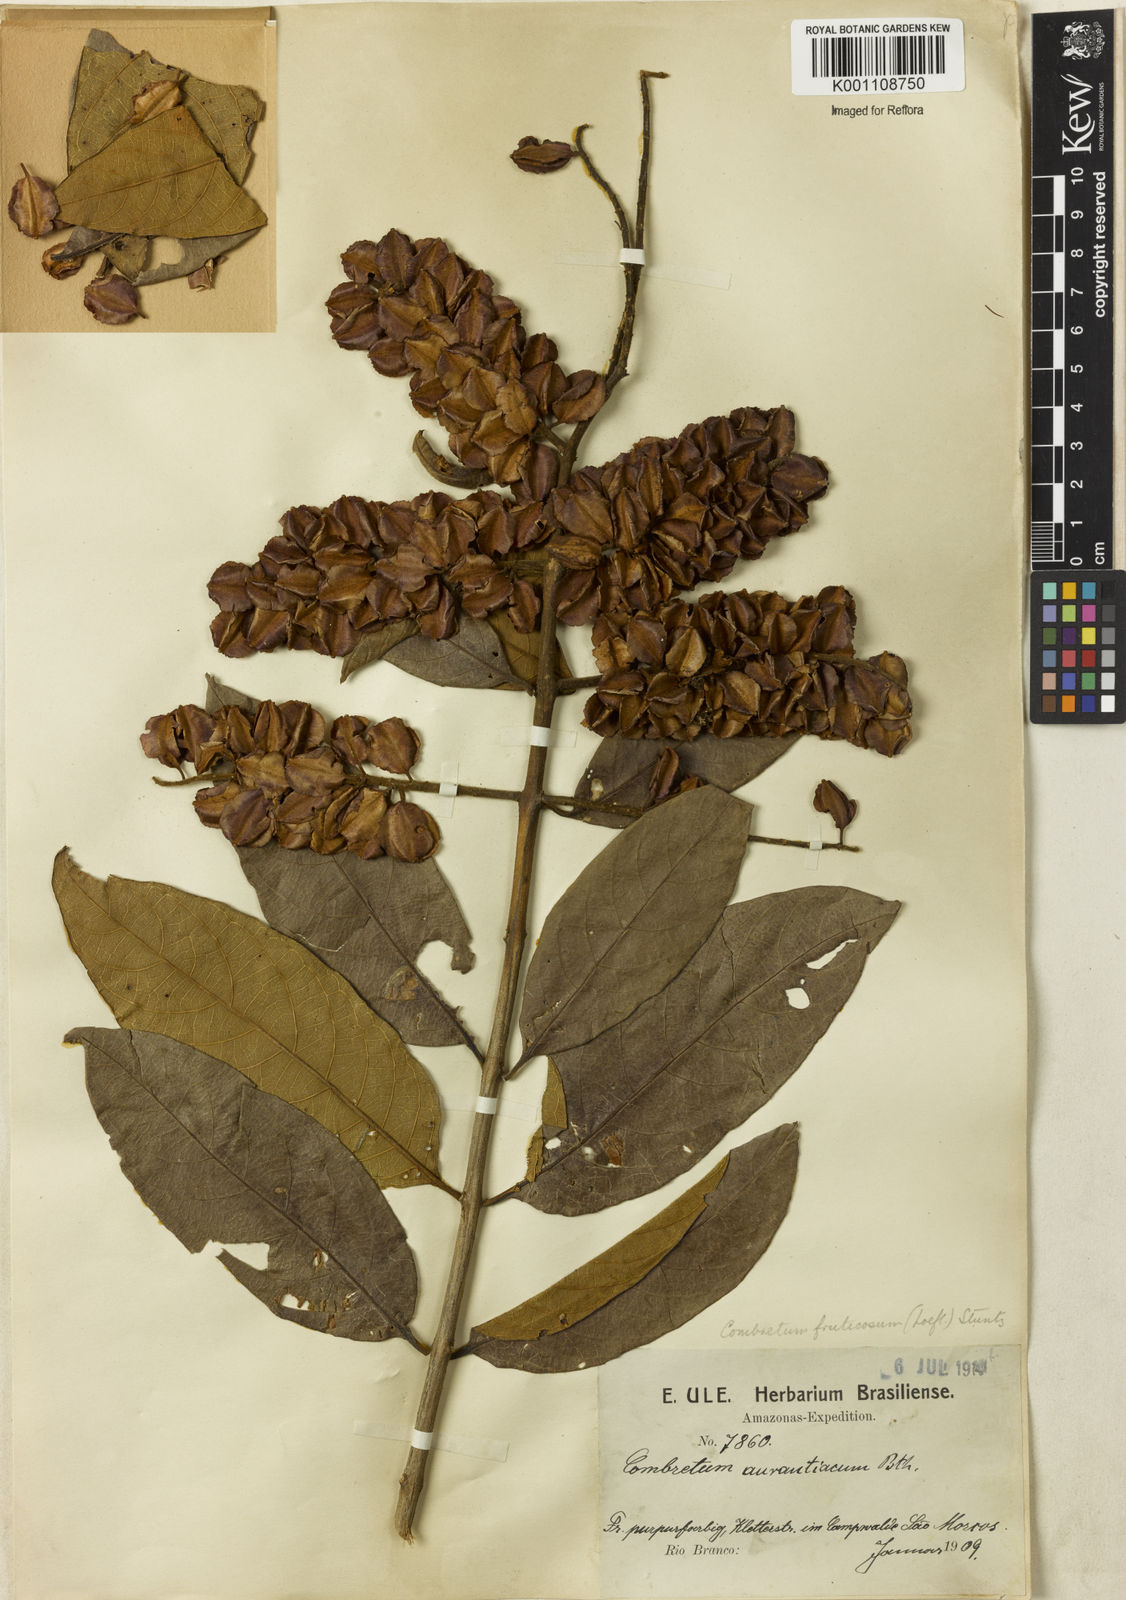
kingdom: Plantae
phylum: Tracheophyta
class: Magnoliopsida
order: Myrtales
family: Combretaceae
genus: Combretum
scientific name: Combretum fruticosum
